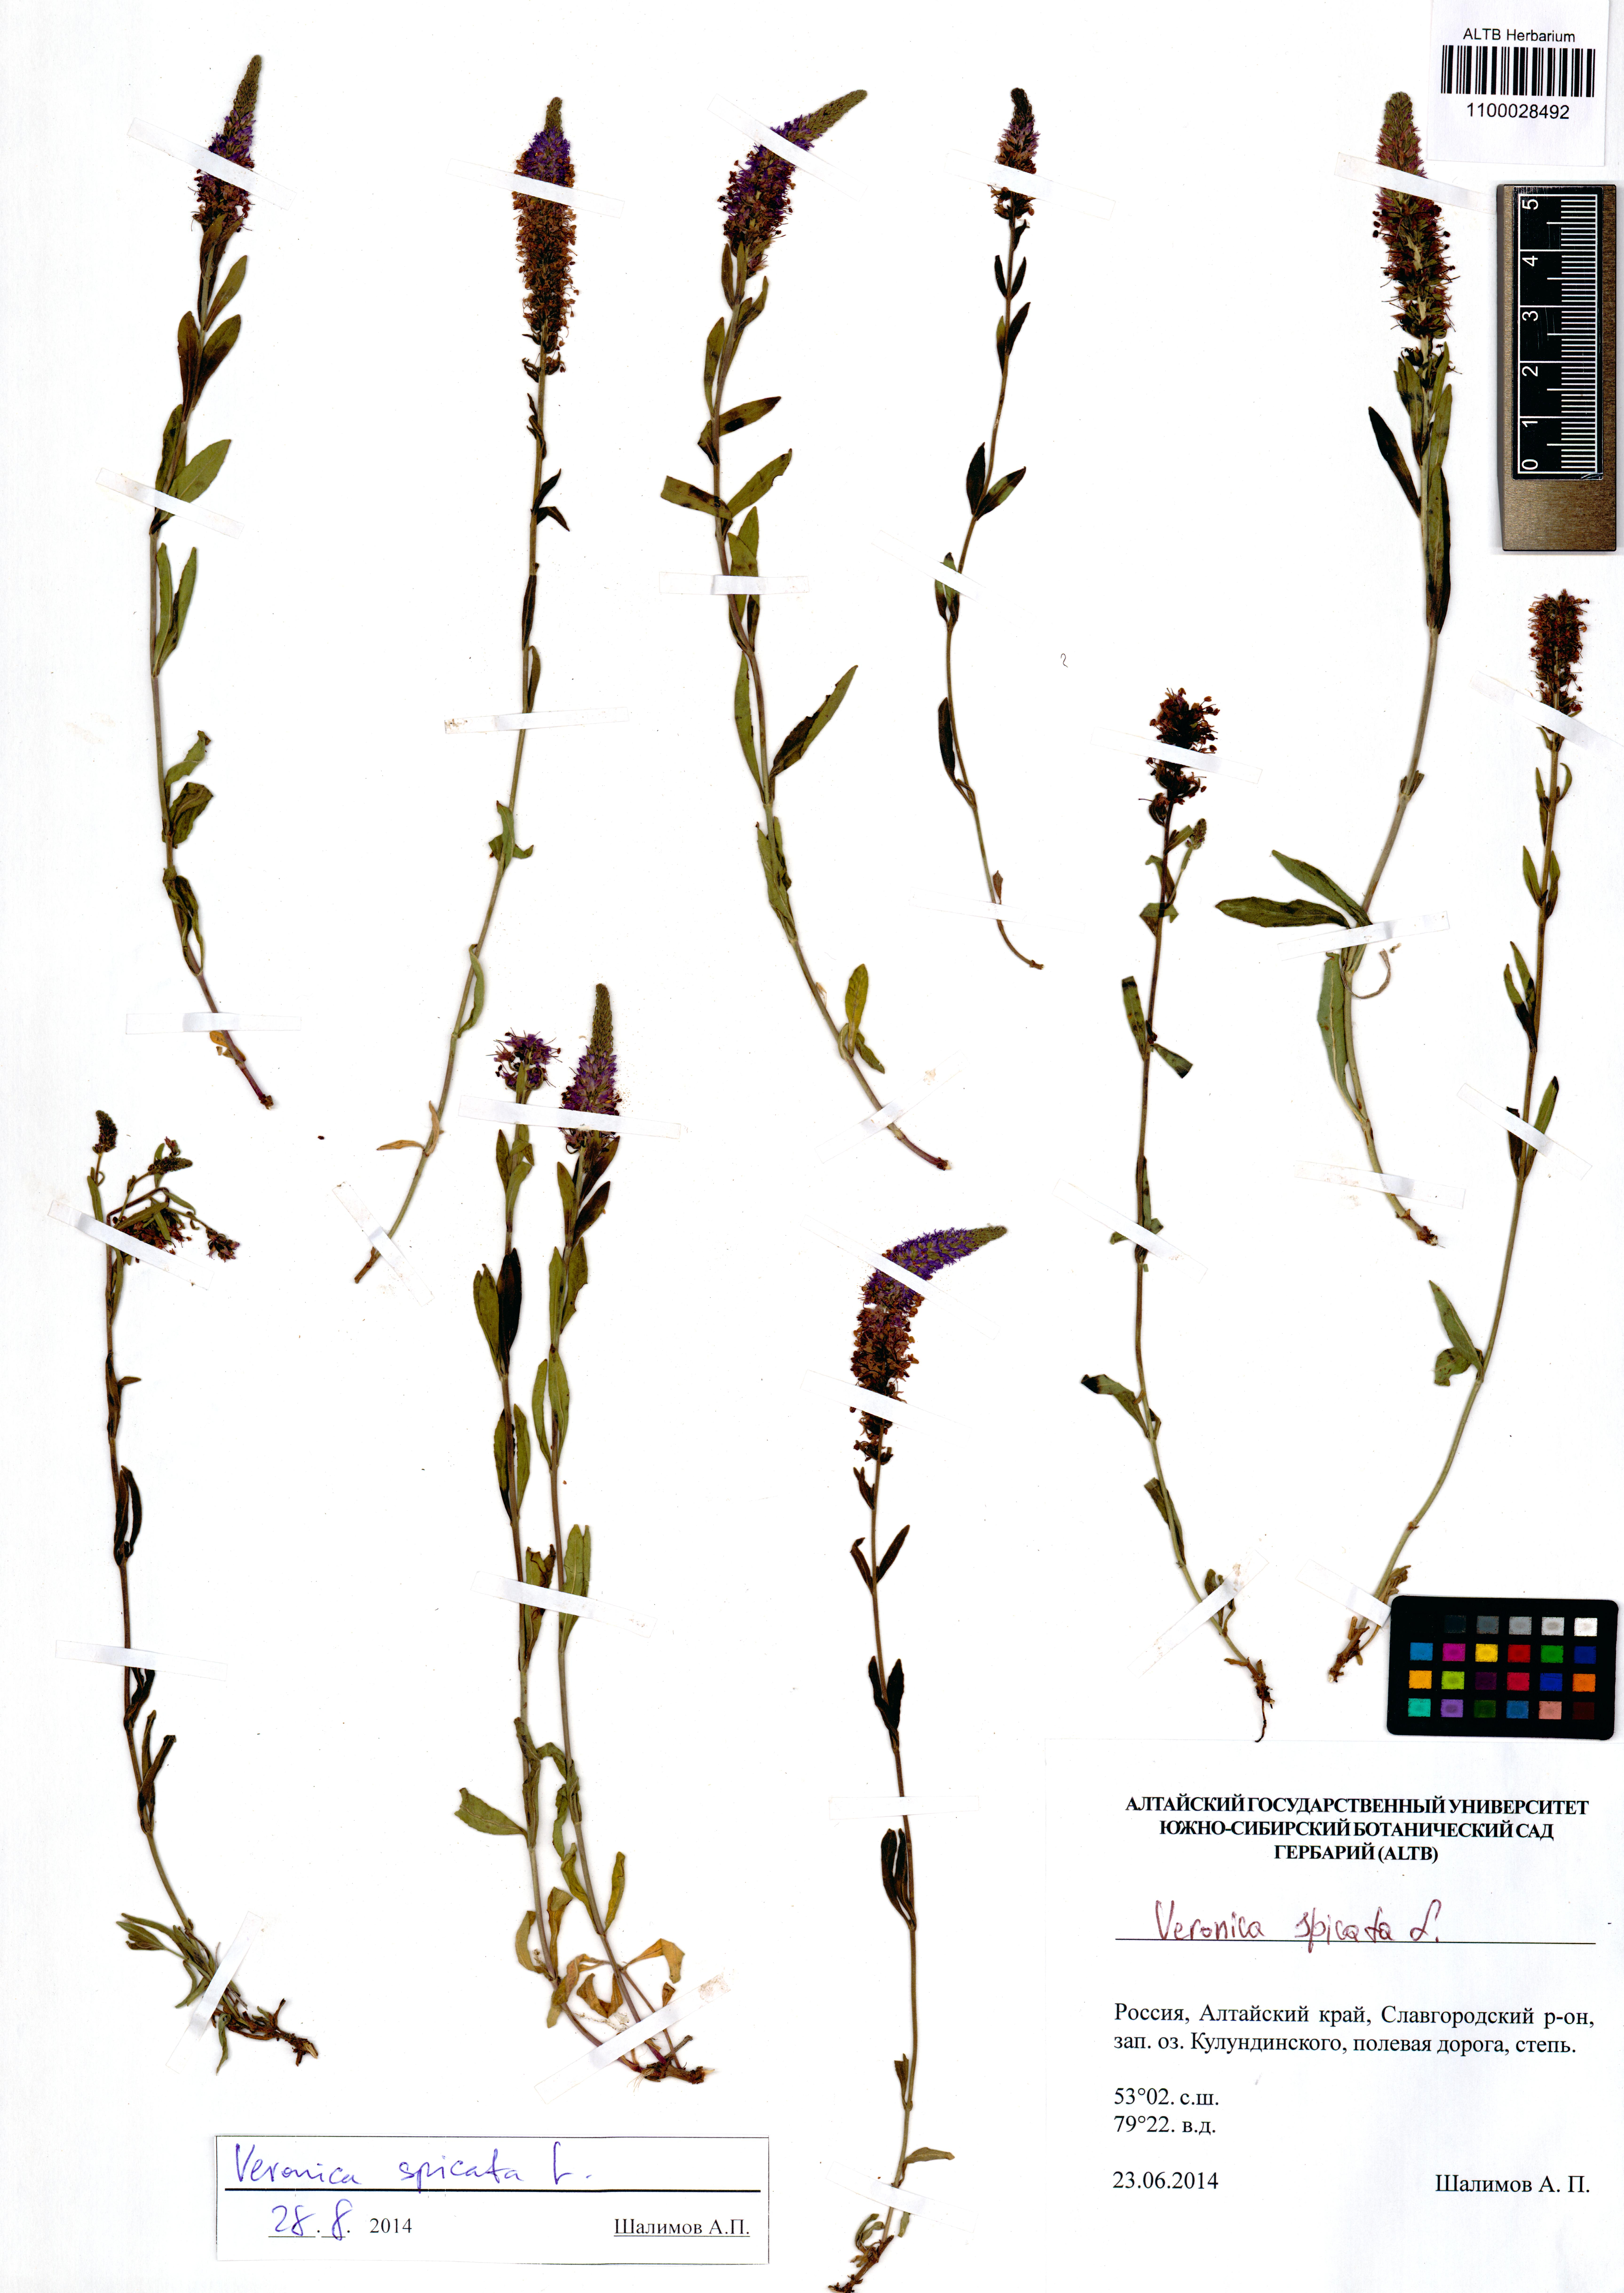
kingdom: Plantae
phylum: Tracheophyta
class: Magnoliopsida
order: Lamiales
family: Plantaginaceae
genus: Veronica
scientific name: Veronica spicata
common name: Spiked speedwell
